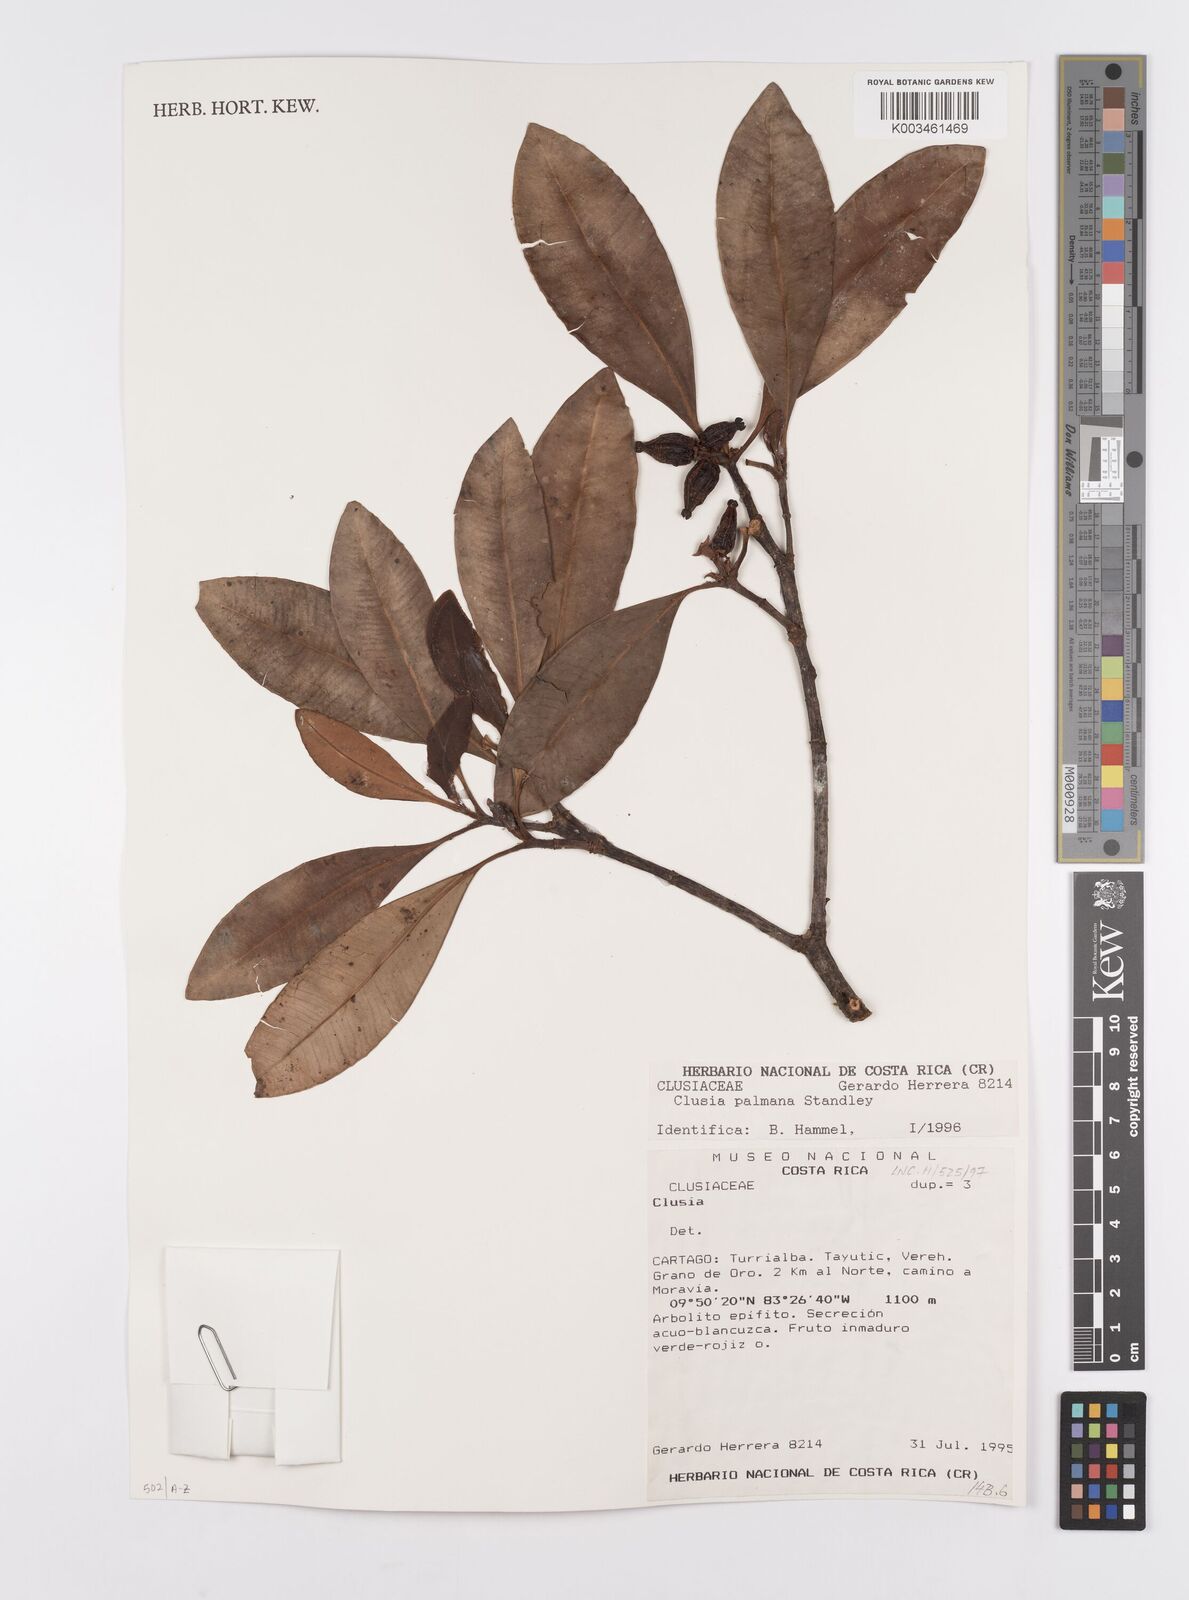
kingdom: Plantae
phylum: Tracheophyta
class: Magnoliopsida
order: Malpighiales
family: Clusiaceae
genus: Clusia
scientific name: Clusia palmana
